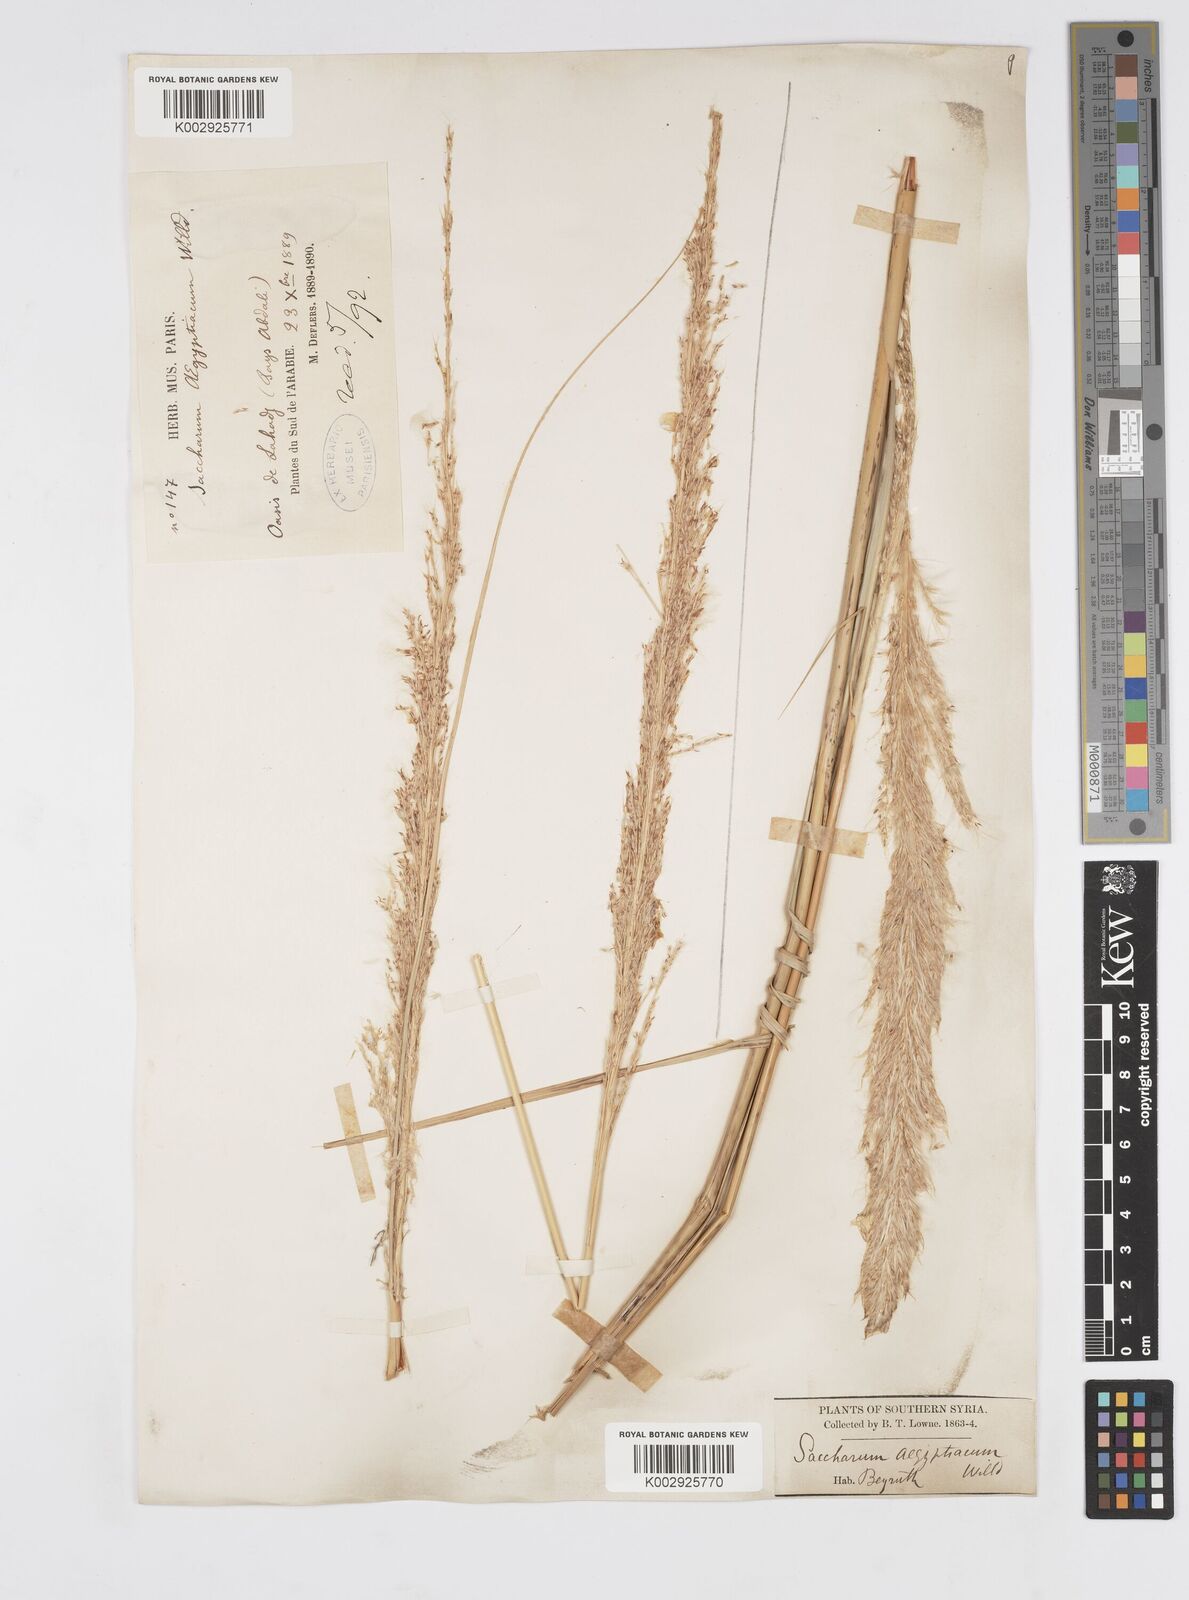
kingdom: Plantae
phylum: Tracheophyta
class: Liliopsida
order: Poales
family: Poaceae
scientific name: Poaceae
